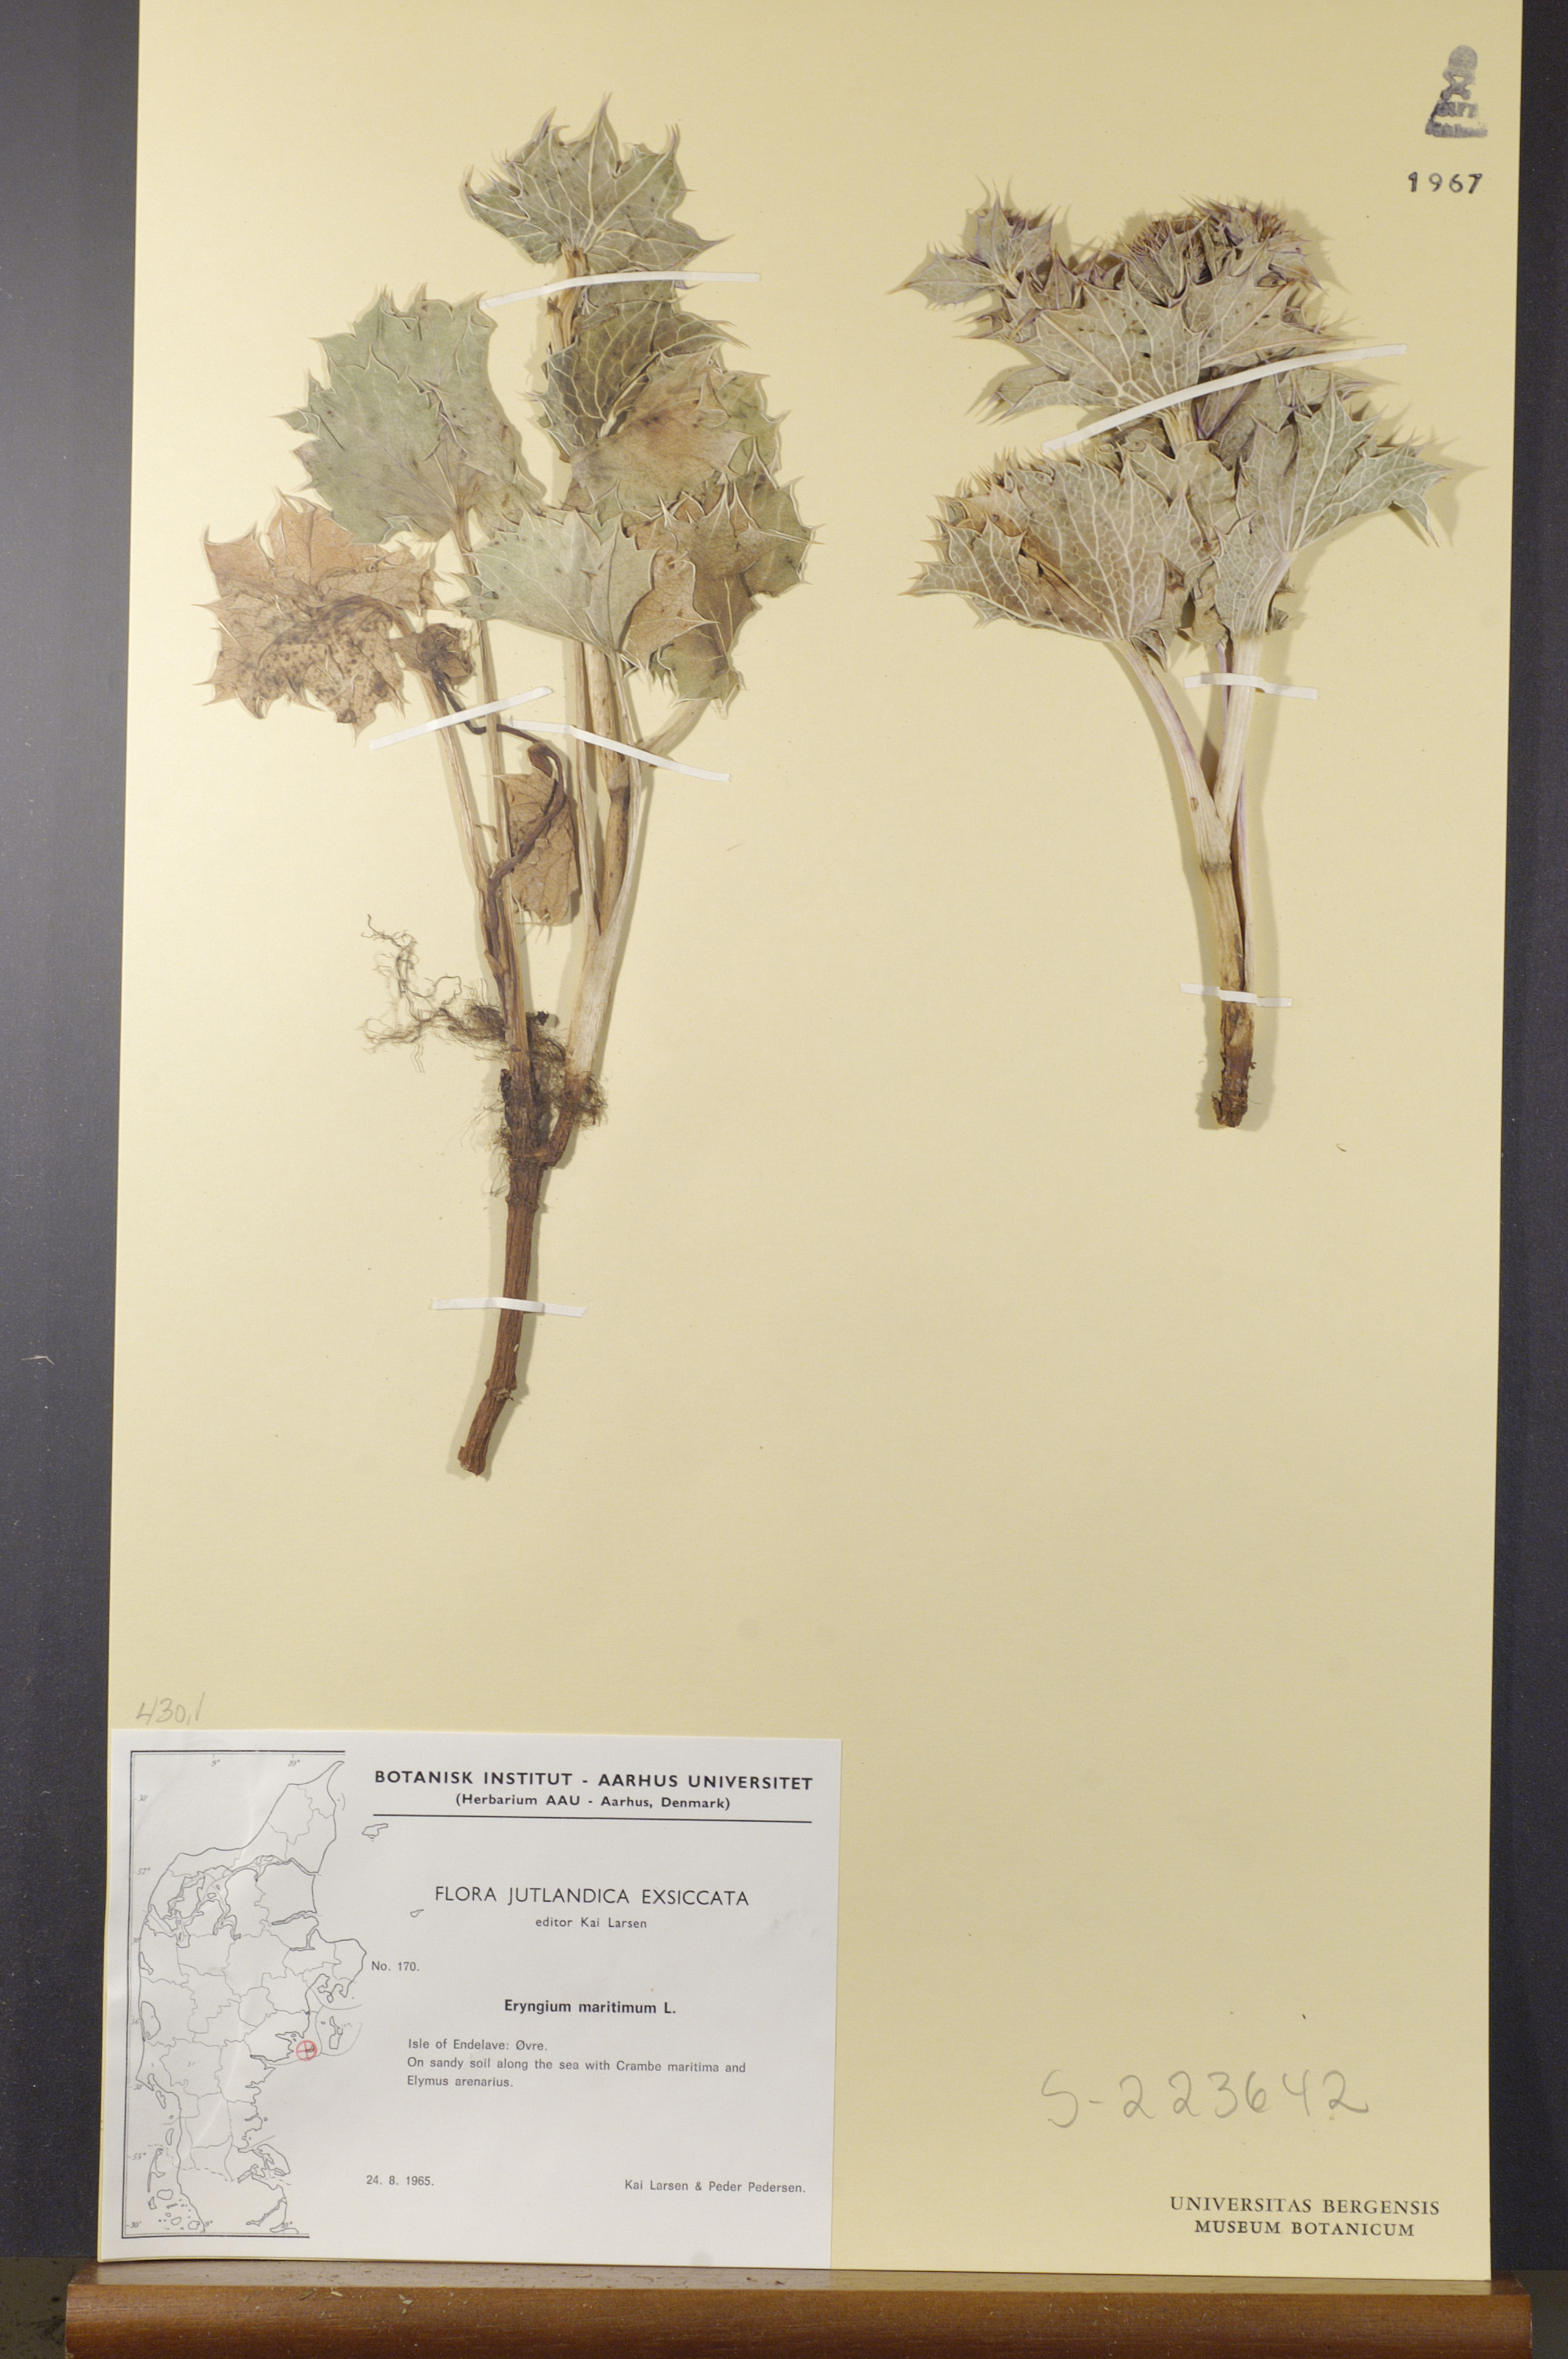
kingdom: Plantae
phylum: Tracheophyta
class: Magnoliopsida
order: Apiales
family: Apiaceae
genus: Eryngium
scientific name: Eryngium maritimum
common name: Sea-holly
